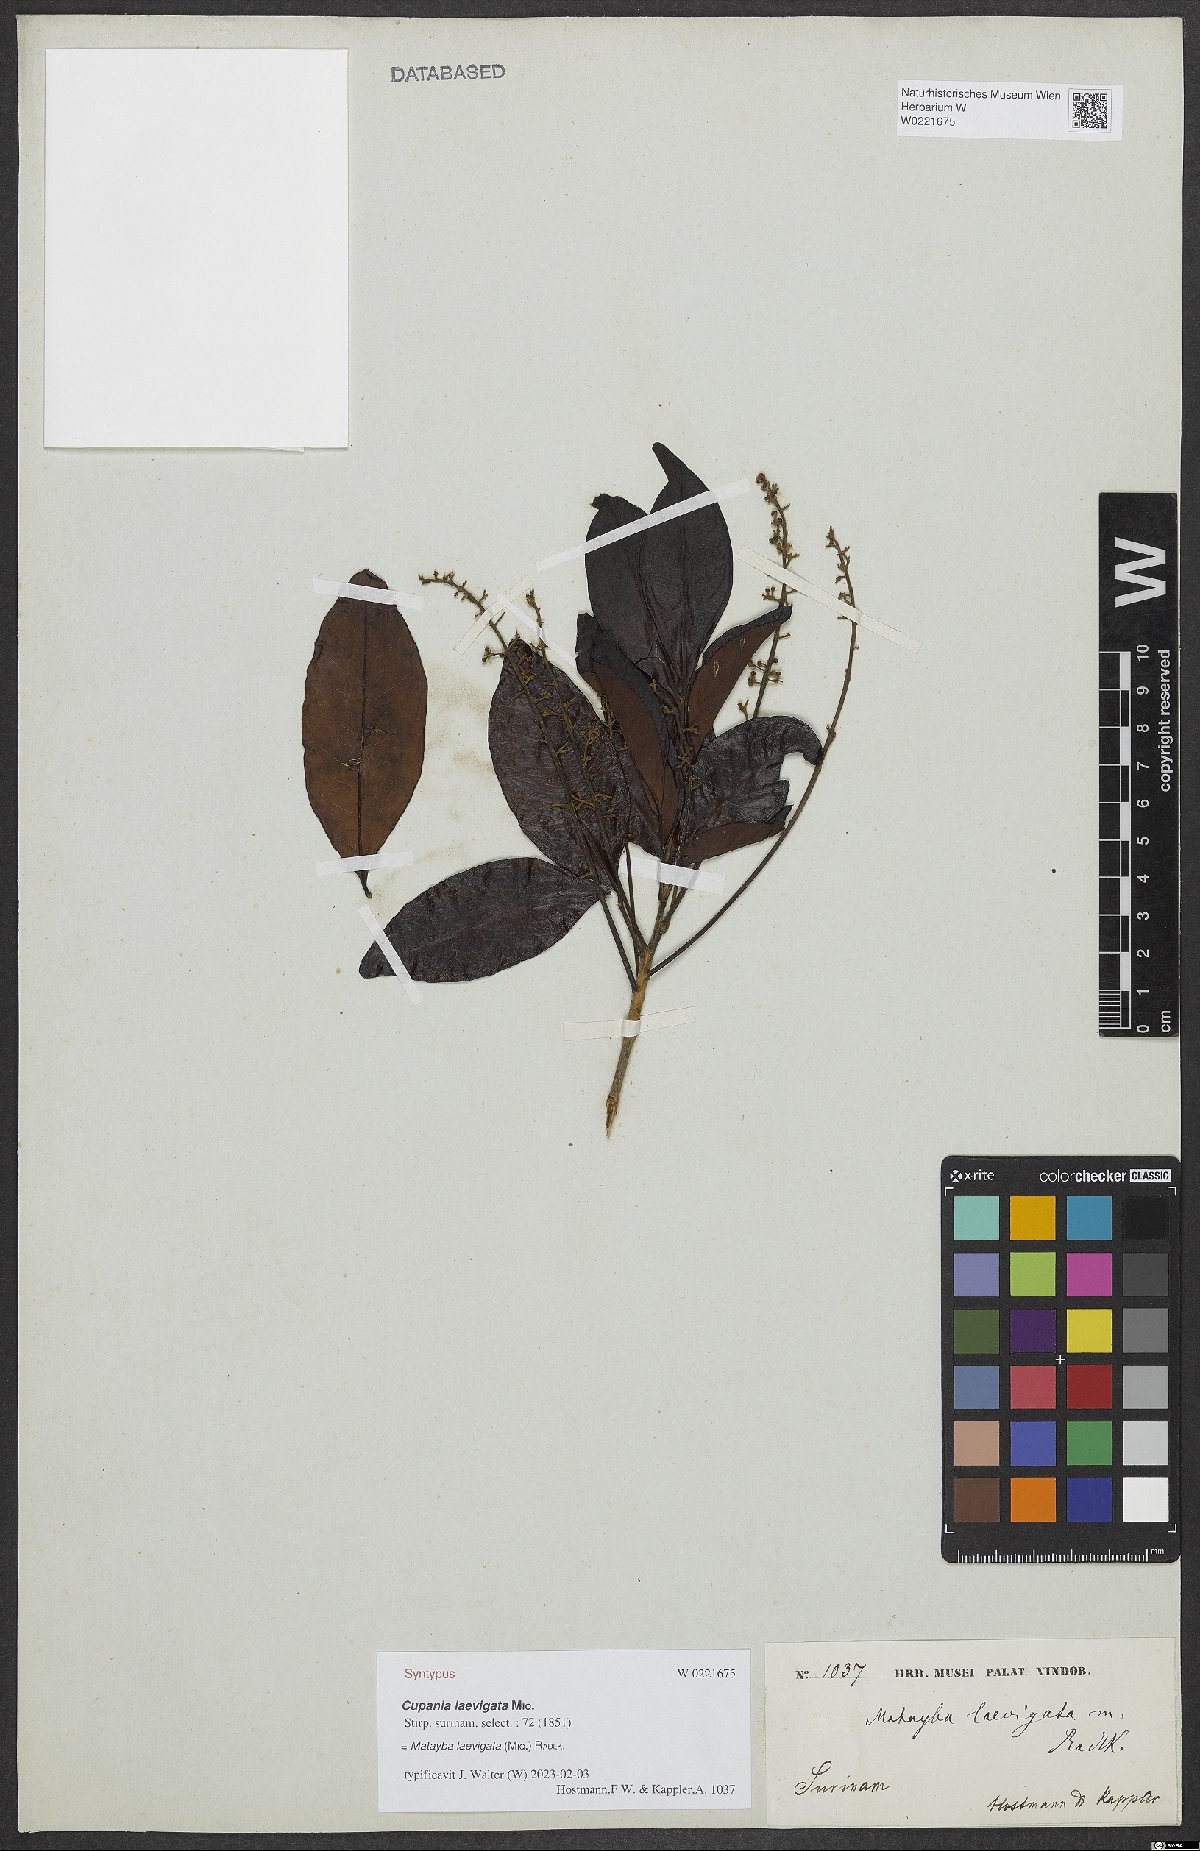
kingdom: Plantae
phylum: Tracheophyta
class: Magnoliopsida
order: Sapindales
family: Sapindaceae
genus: Matayba
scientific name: Matayba
